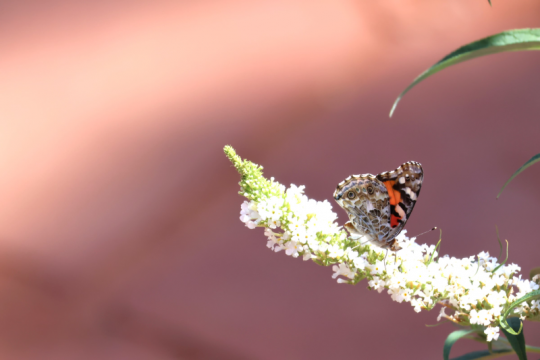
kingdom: Animalia
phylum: Arthropoda
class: Insecta
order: Lepidoptera
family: Nymphalidae
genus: Vanessa
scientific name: Vanessa cardui
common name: Painted Lady
